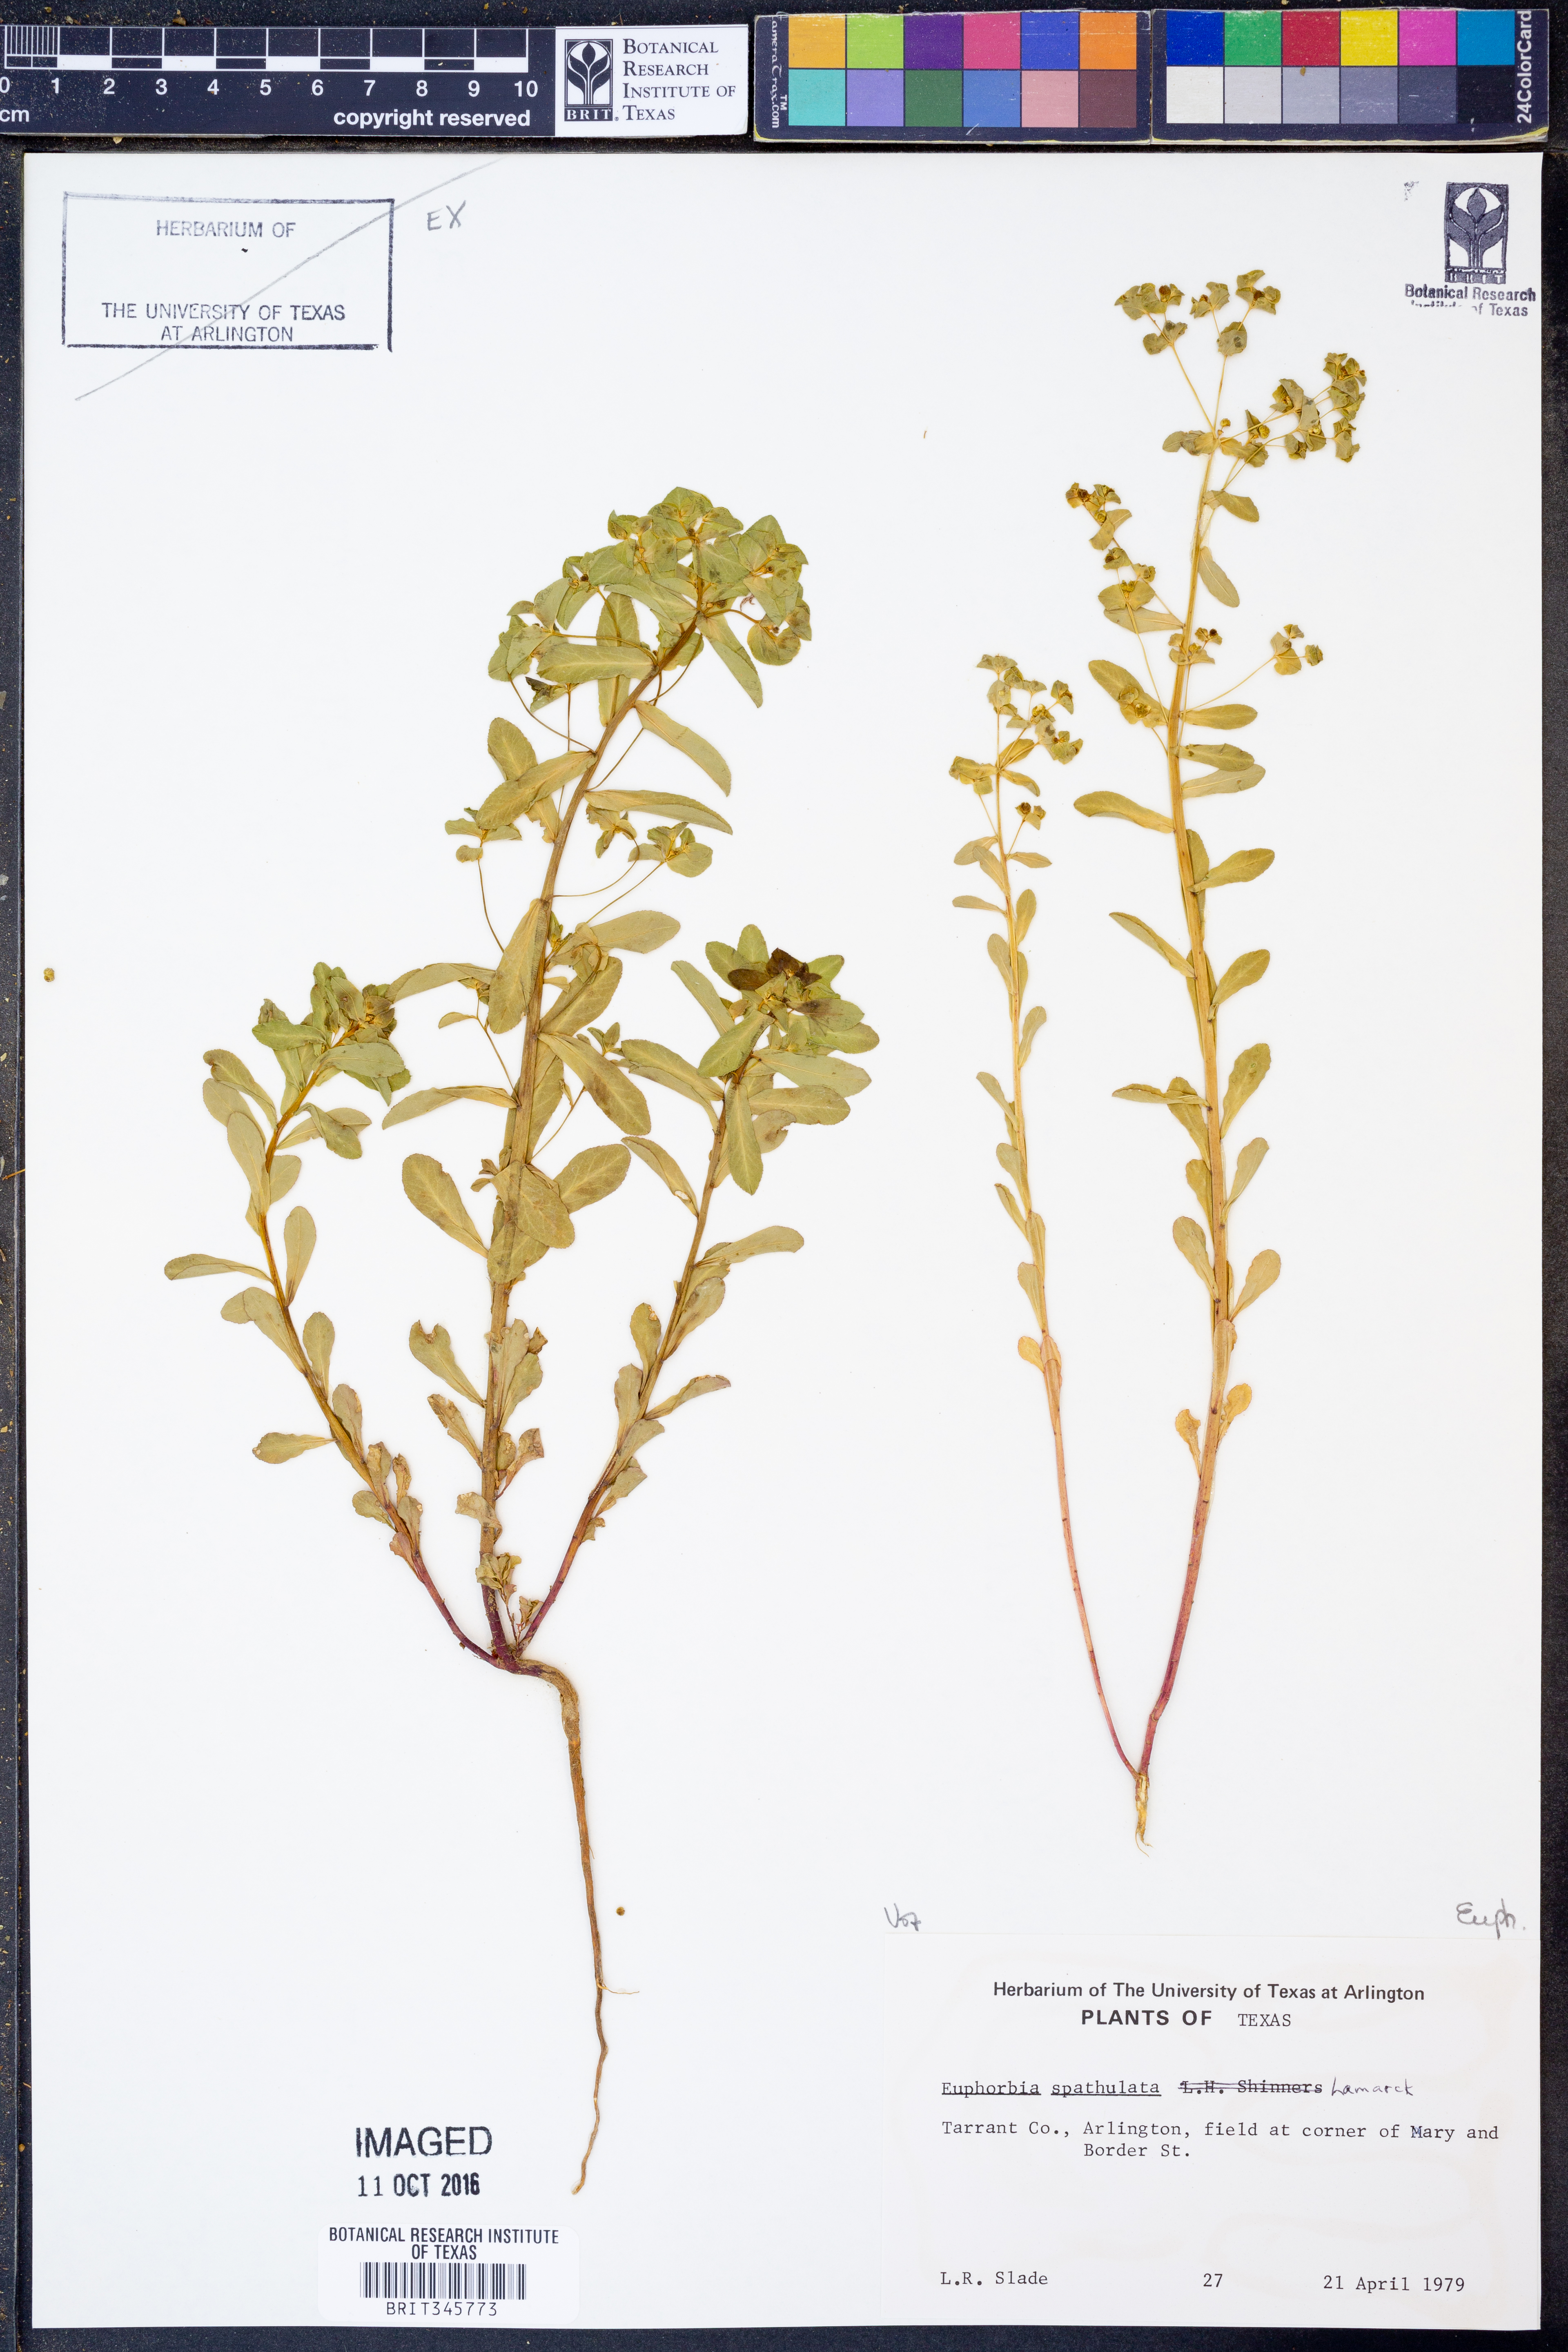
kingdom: Plantae
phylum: Tracheophyta
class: Magnoliopsida
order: Malpighiales
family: Euphorbiaceae
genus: Euphorbia
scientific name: Euphorbia spathulata
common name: Blunt spurge
